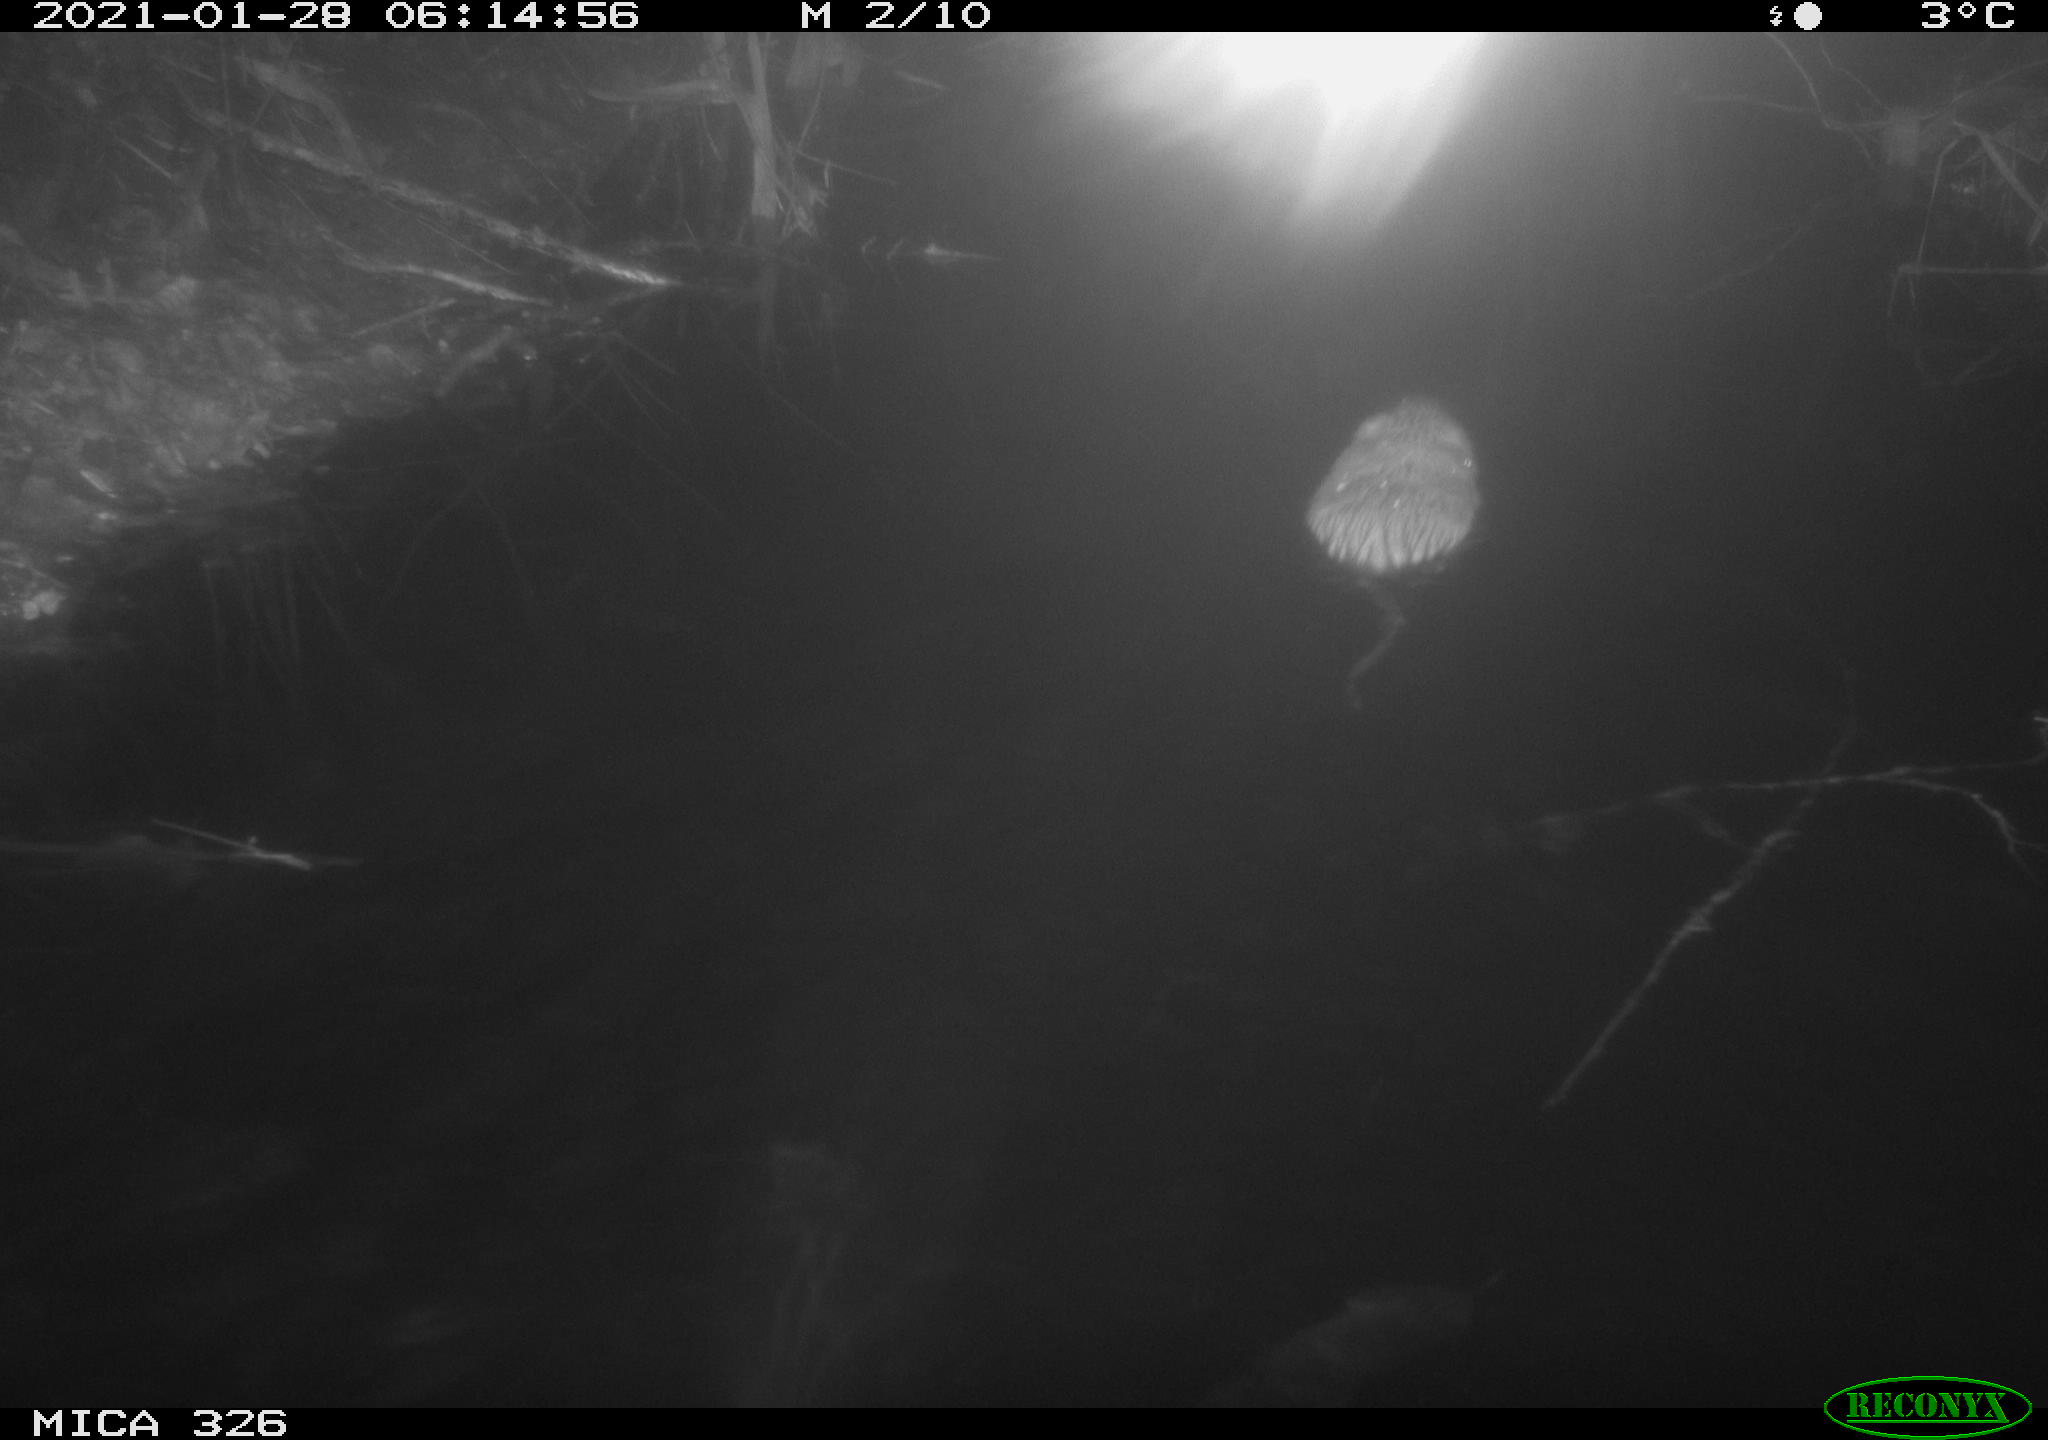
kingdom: Animalia
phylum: Chordata
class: Mammalia
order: Rodentia
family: Cricetidae
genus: Ondatra
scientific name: Ondatra zibethicus
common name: Muskrat
